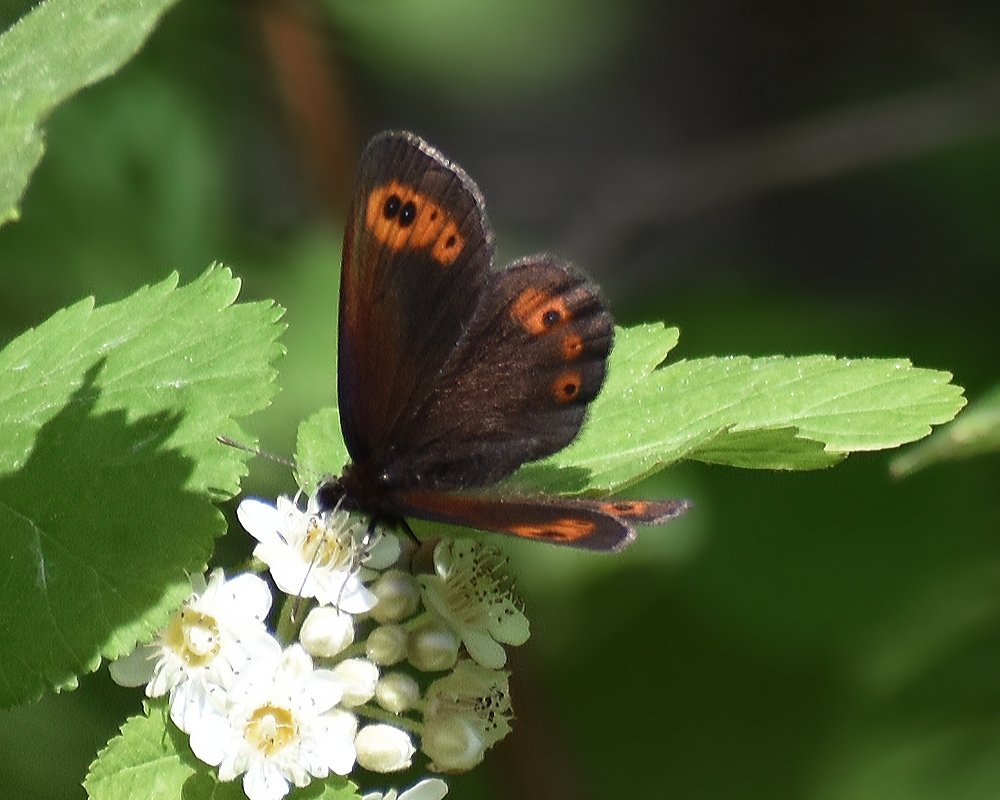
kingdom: Animalia
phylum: Arthropoda
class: Insecta
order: Lepidoptera
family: Nymphalidae
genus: Erebia
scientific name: Erebia epipsodea
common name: Common Alpine
